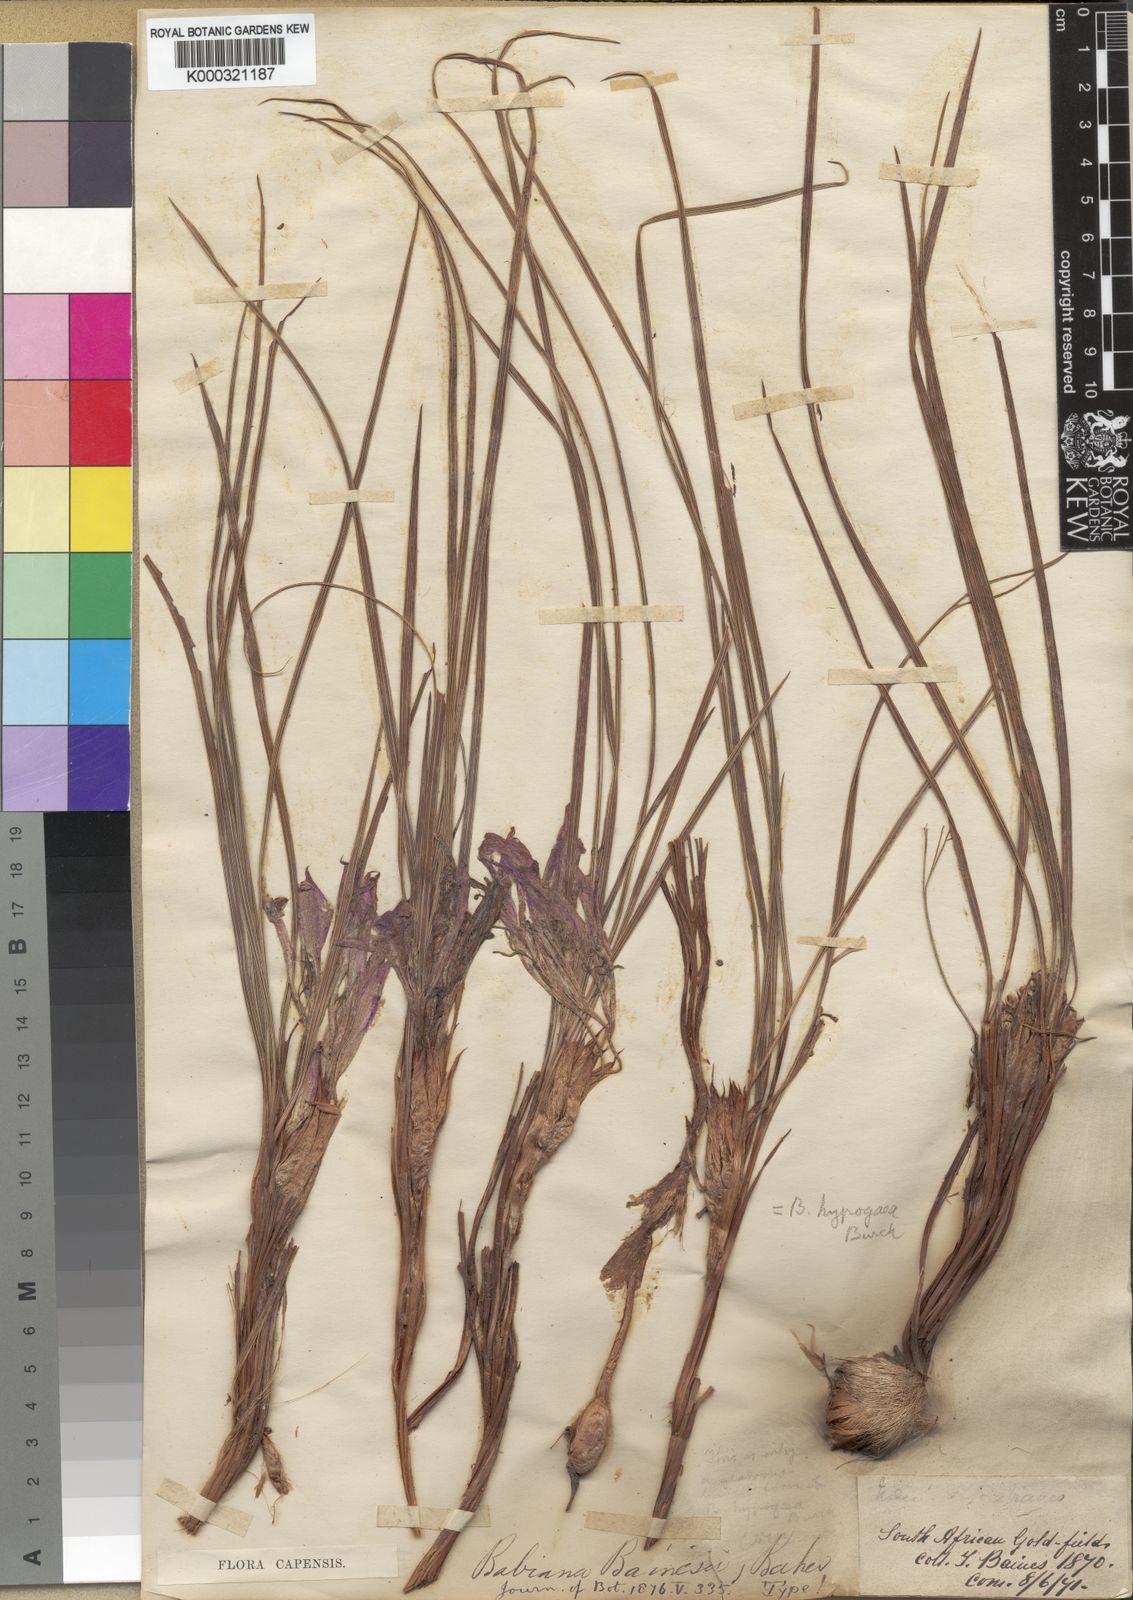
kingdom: Plantae
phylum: Tracheophyta
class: Liliopsida
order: Asparagales
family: Iridaceae
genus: Babiana
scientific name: Babiana bainesii
